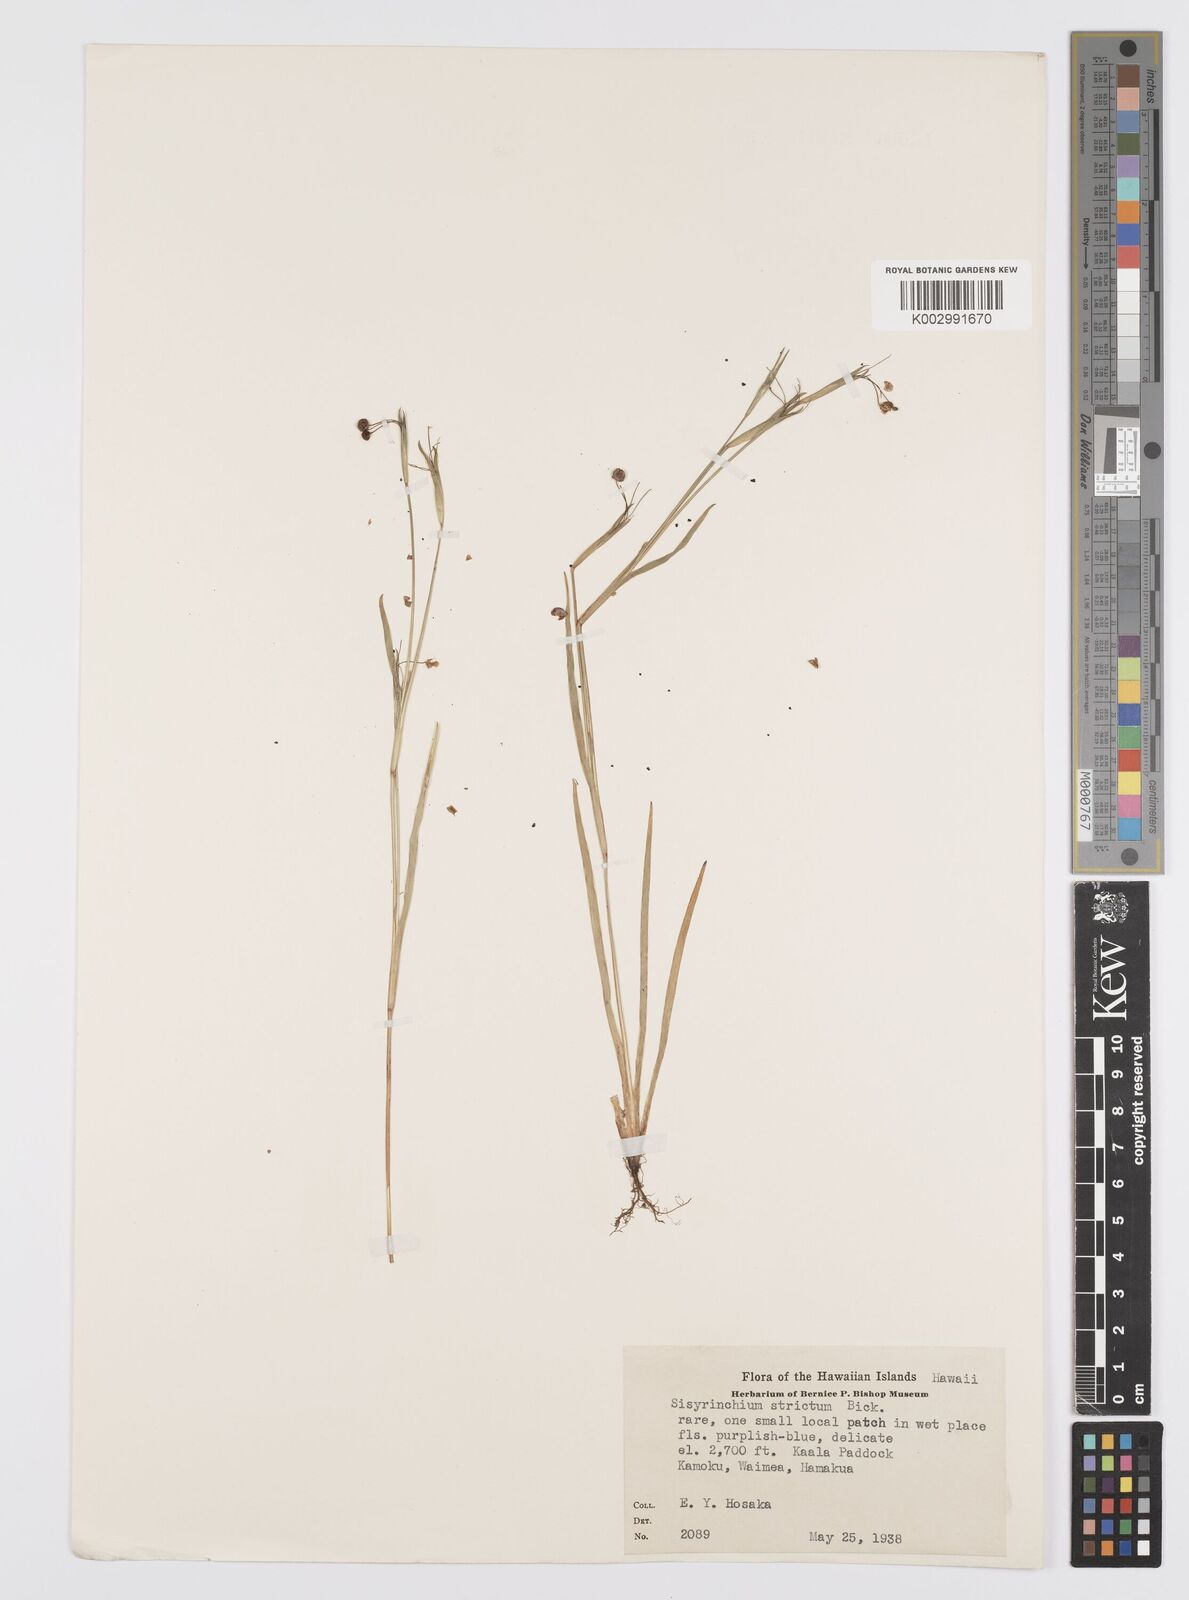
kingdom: Plantae
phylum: Tracheophyta
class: Liliopsida
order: Asparagales
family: Iridaceae
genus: Sisyrinchium
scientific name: Sisyrinchium strictum
